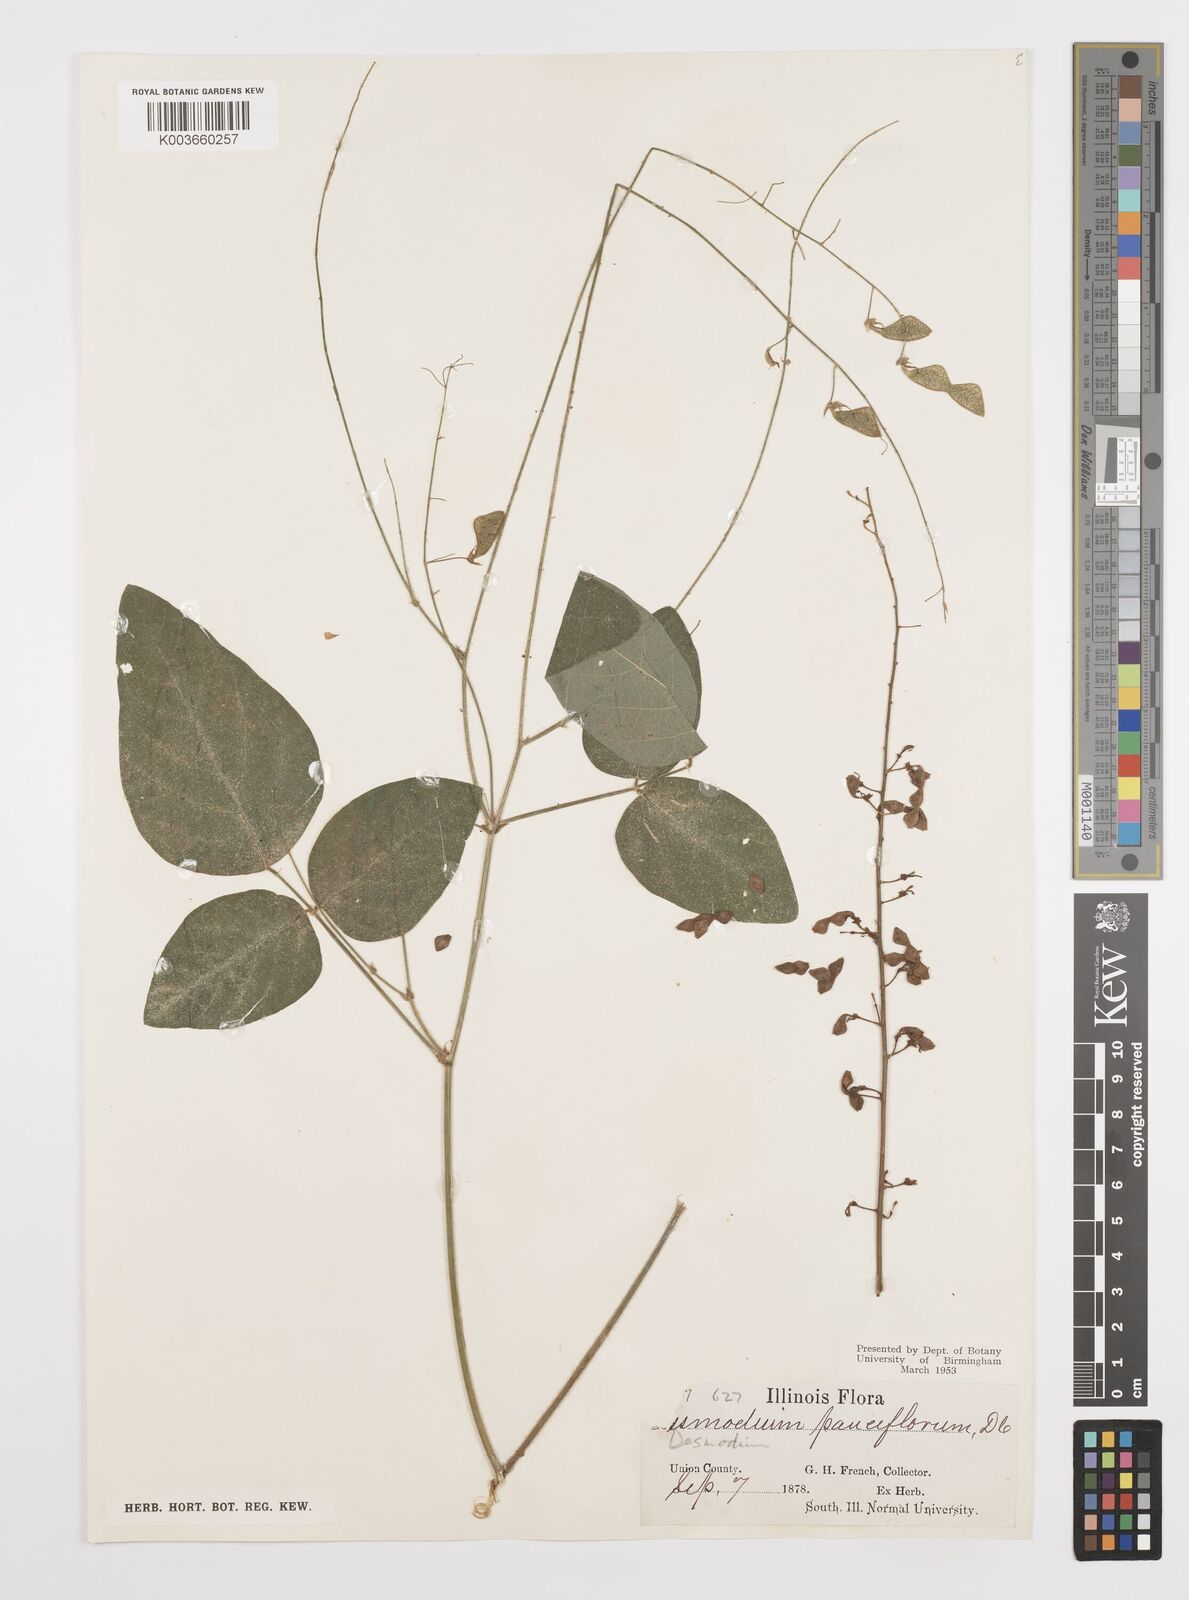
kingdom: Plantae
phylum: Tracheophyta
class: Magnoliopsida
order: Fabales
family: Fabaceae
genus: Desmodium
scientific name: Desmodium procumbens
